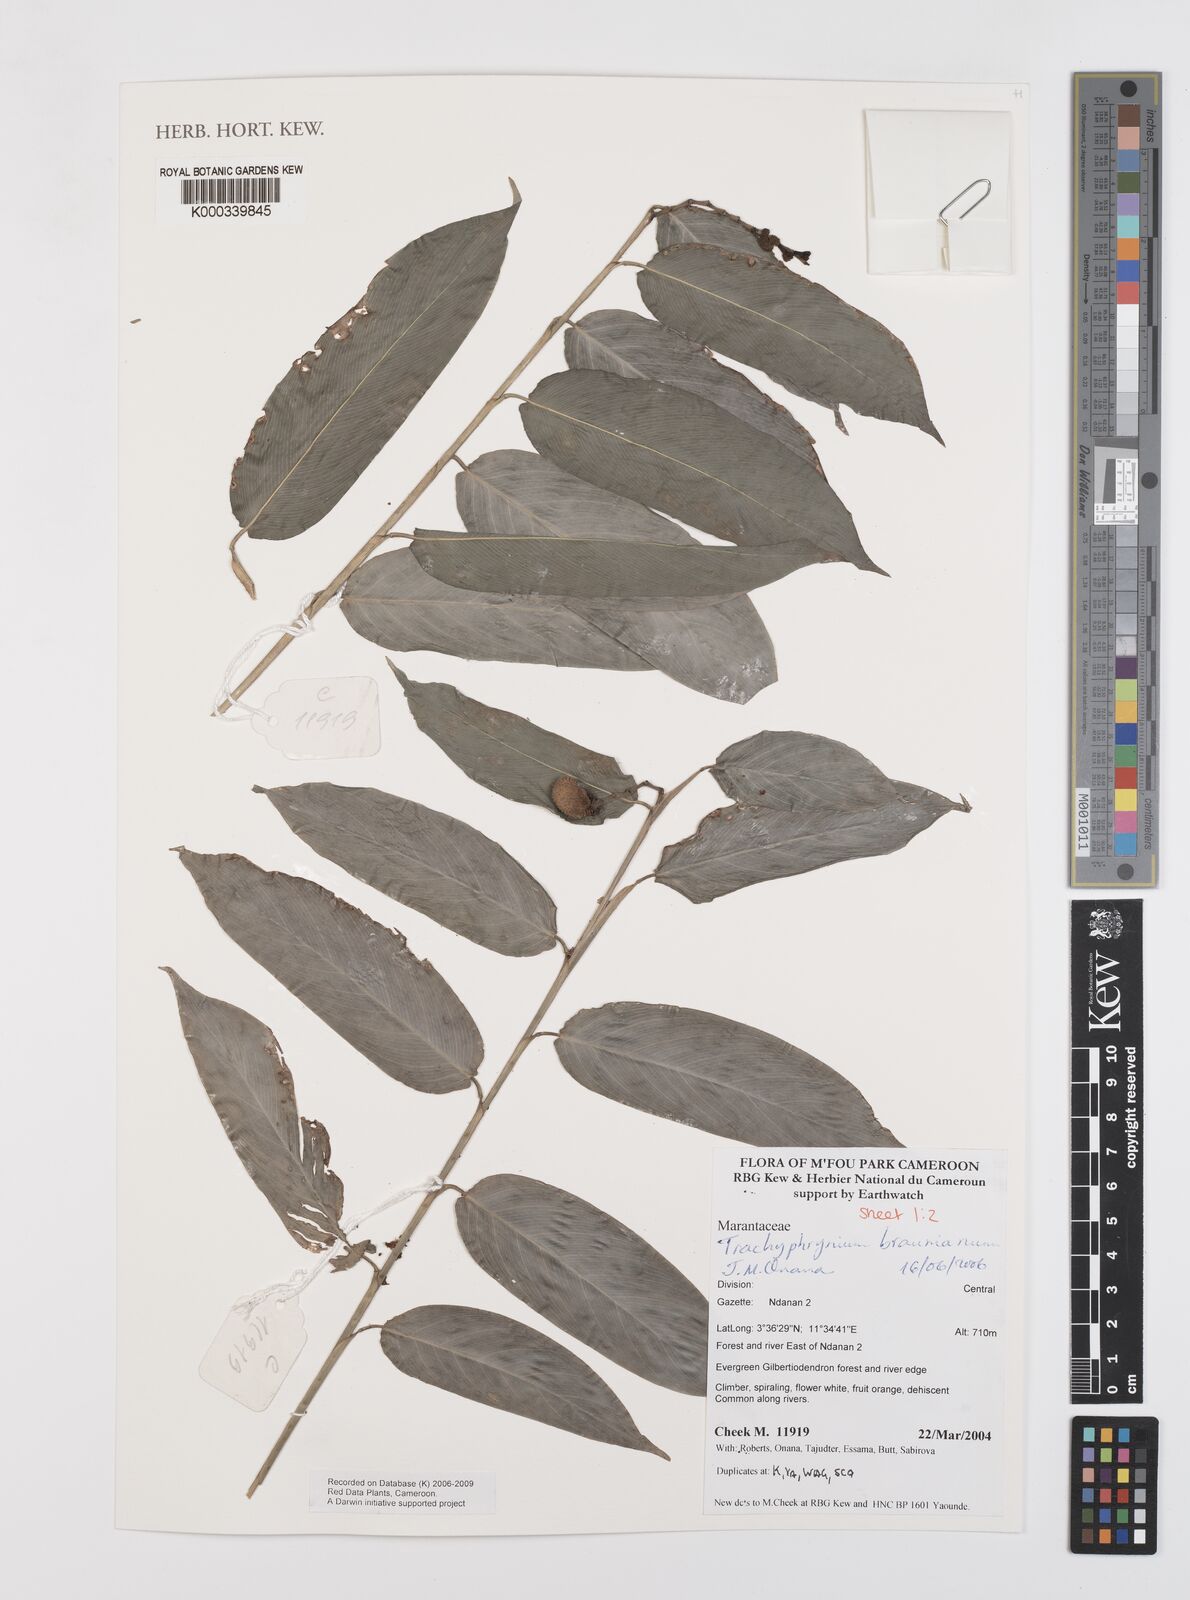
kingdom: Plantae
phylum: Tracheophyta
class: Liliopsida
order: Zingiberales
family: Marantaceae
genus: Trachyphrynium
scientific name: Trachyphrynium braunianum
